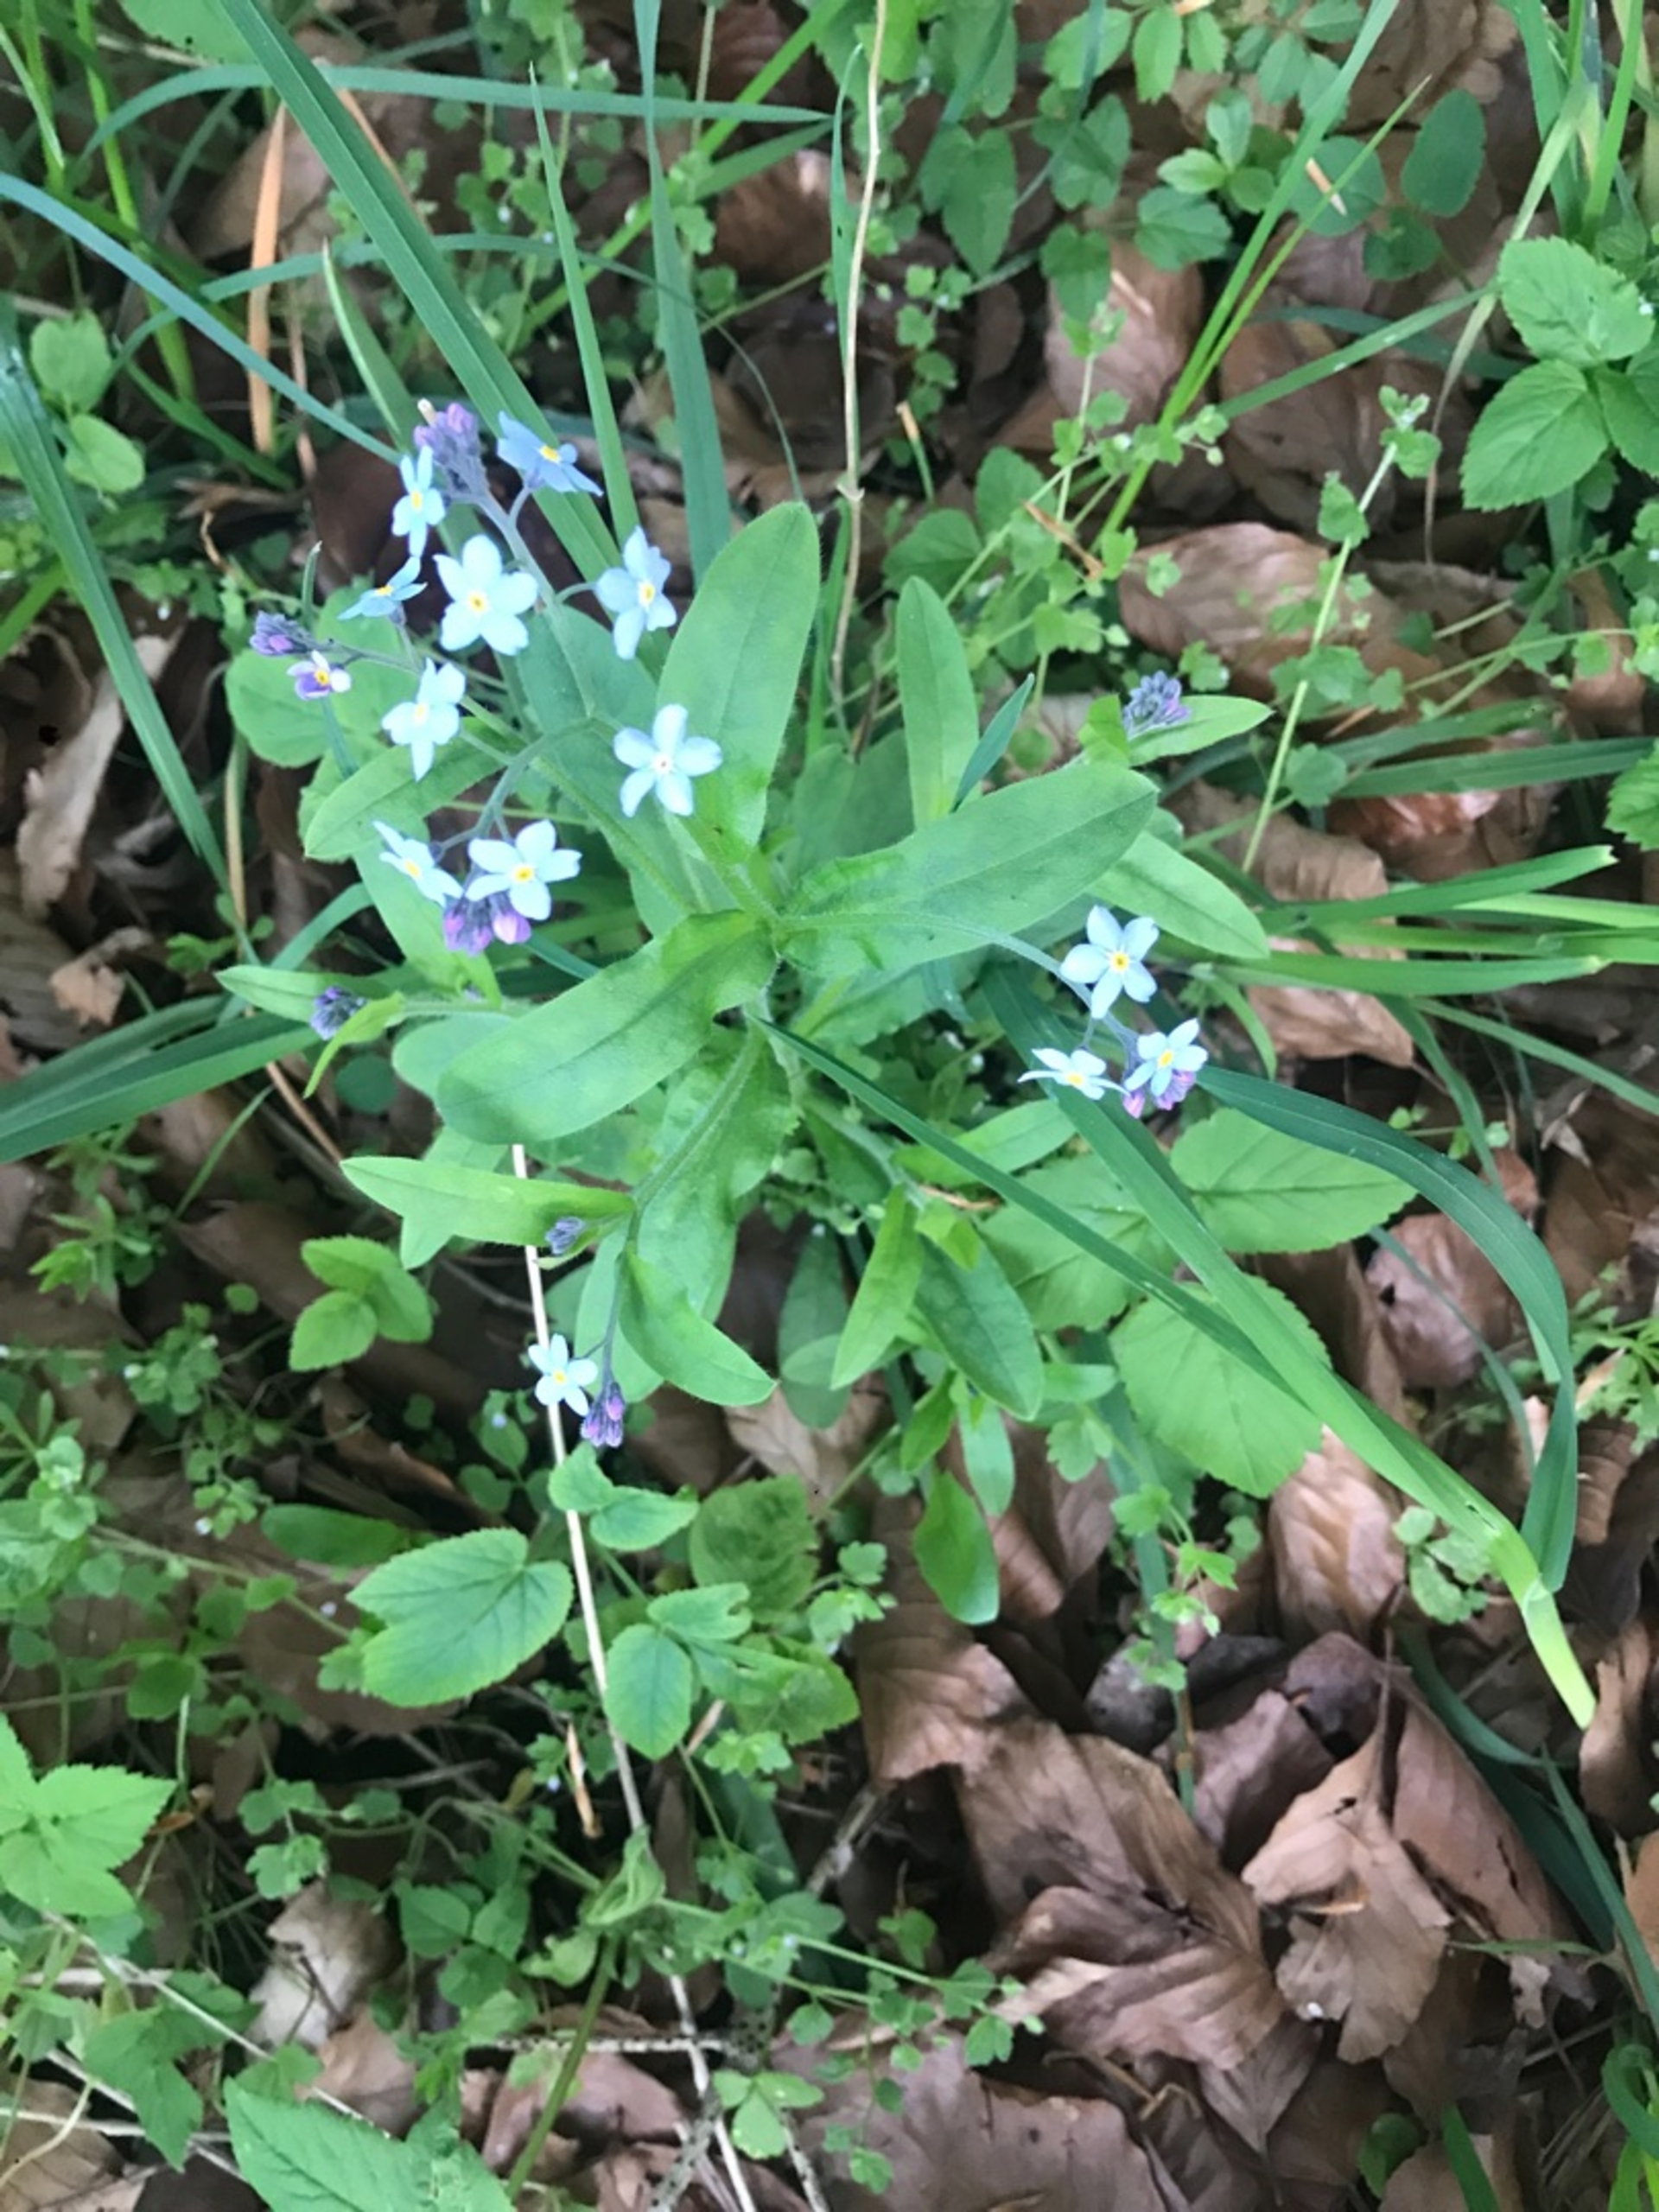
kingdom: Plantae
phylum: Tracheophyta
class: Magnoliopsida
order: Boraginales
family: Boraginaceae
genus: Myosotis
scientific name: Myosotis sylvatica
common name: Skov-forglemmigej
